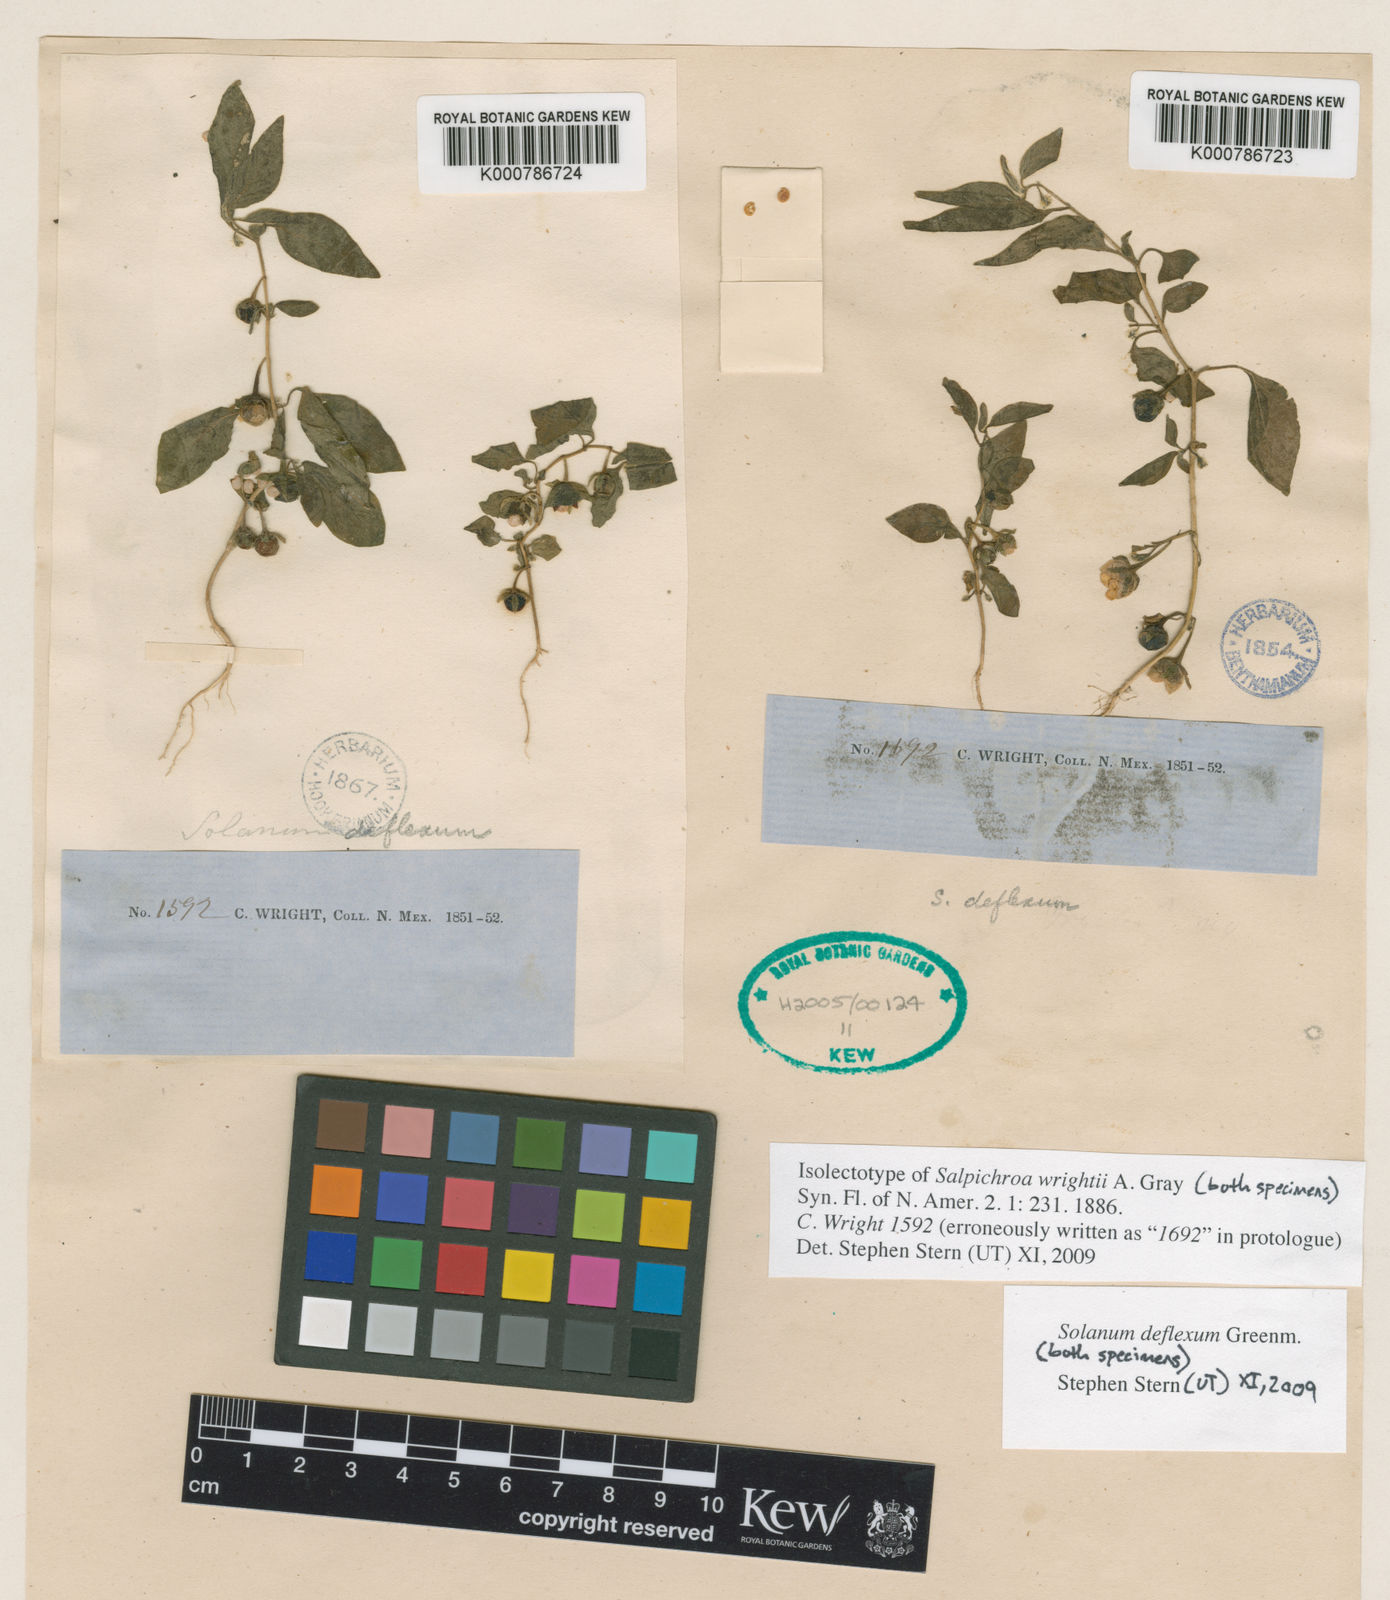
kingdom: Plantae
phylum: Tracheophyta
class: Magnoliopsida
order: Solanales
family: Solanaceae
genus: Solanum
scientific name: Solanum deflexum
